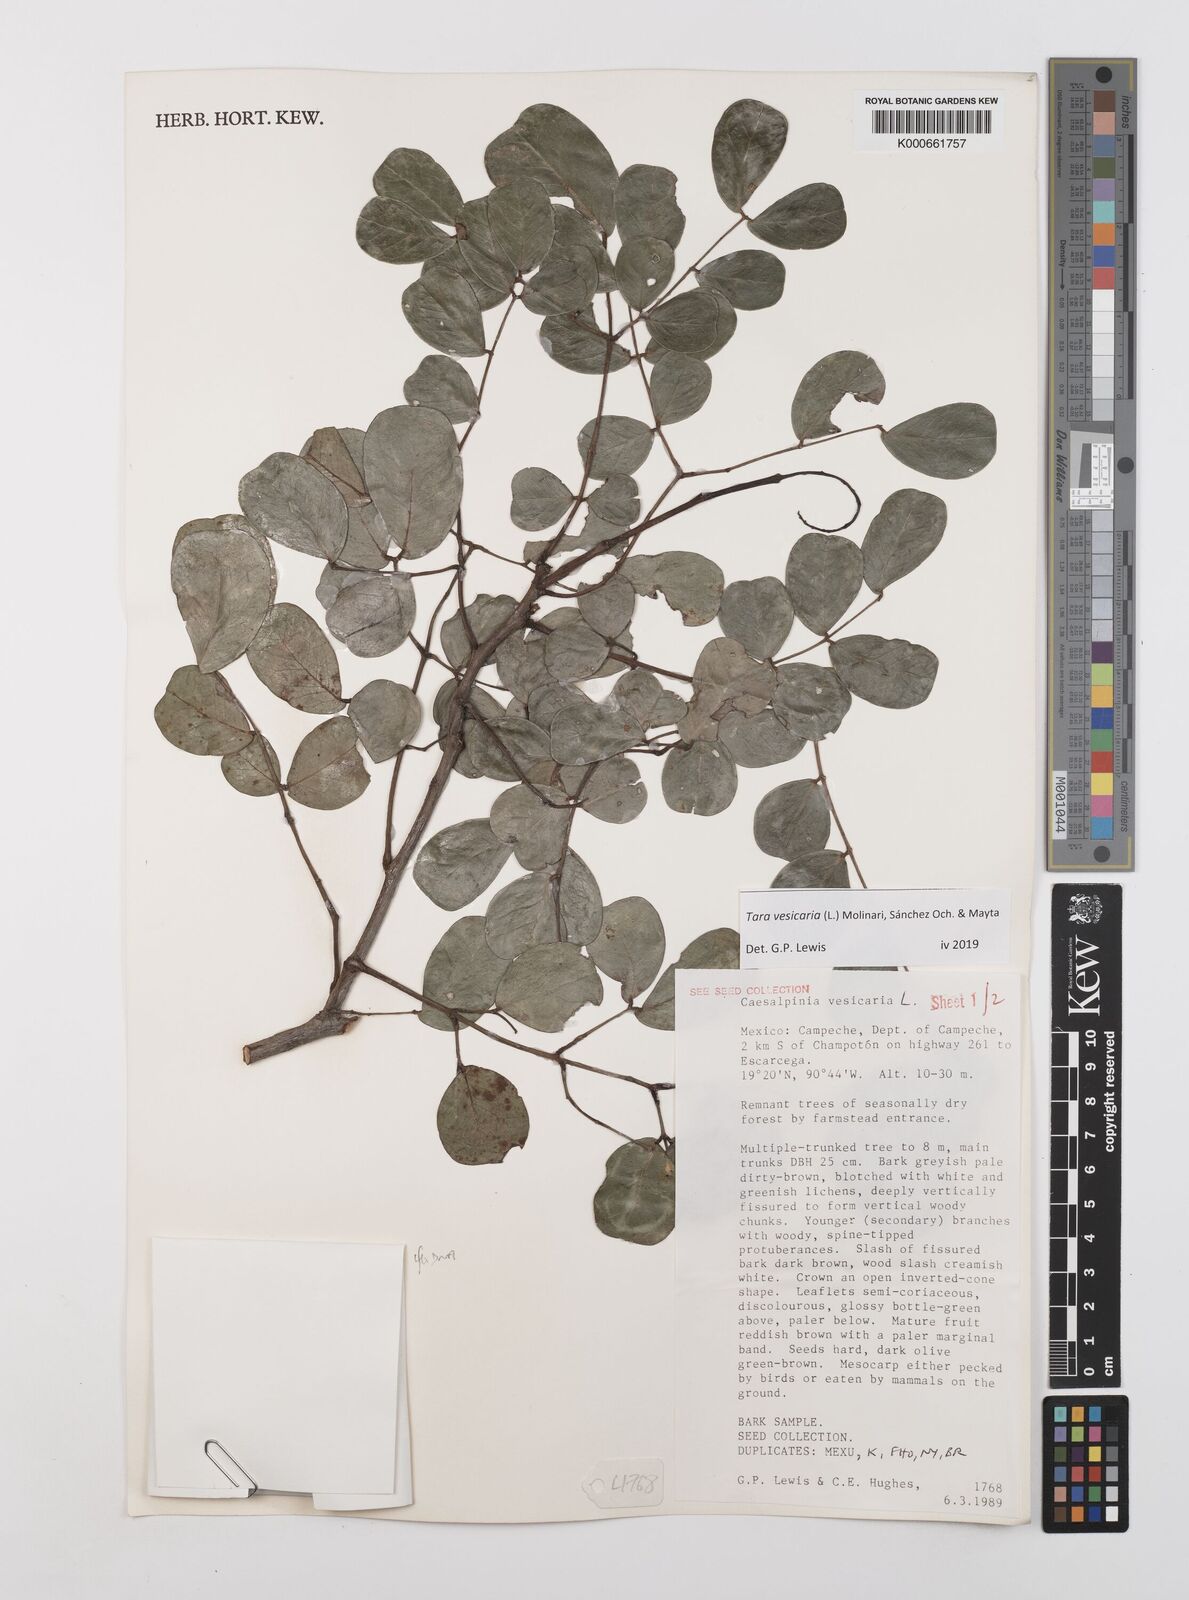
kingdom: Plantae
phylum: Tracheophyta
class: Magnoliopsida
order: Fabales
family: Fabaceae
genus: Tara
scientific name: Tara vesicaria
